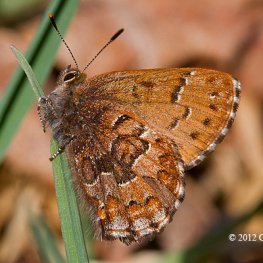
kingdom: Animalia
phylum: Arthropoda
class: Insecta
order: Lepidoptera
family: Lycaenidae
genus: Incisalia
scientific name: Incisalia niphon
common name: Eastern Pine Elfin
